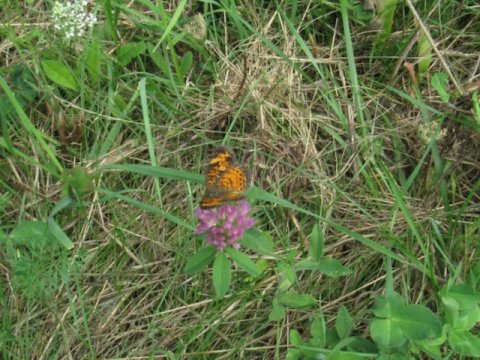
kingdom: Animalia
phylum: Arthropoda
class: Insecta
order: Lepidoptera
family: Nymphalidae
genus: Phyciodes
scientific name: Phyciodes tharos
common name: Pearl Crescent
